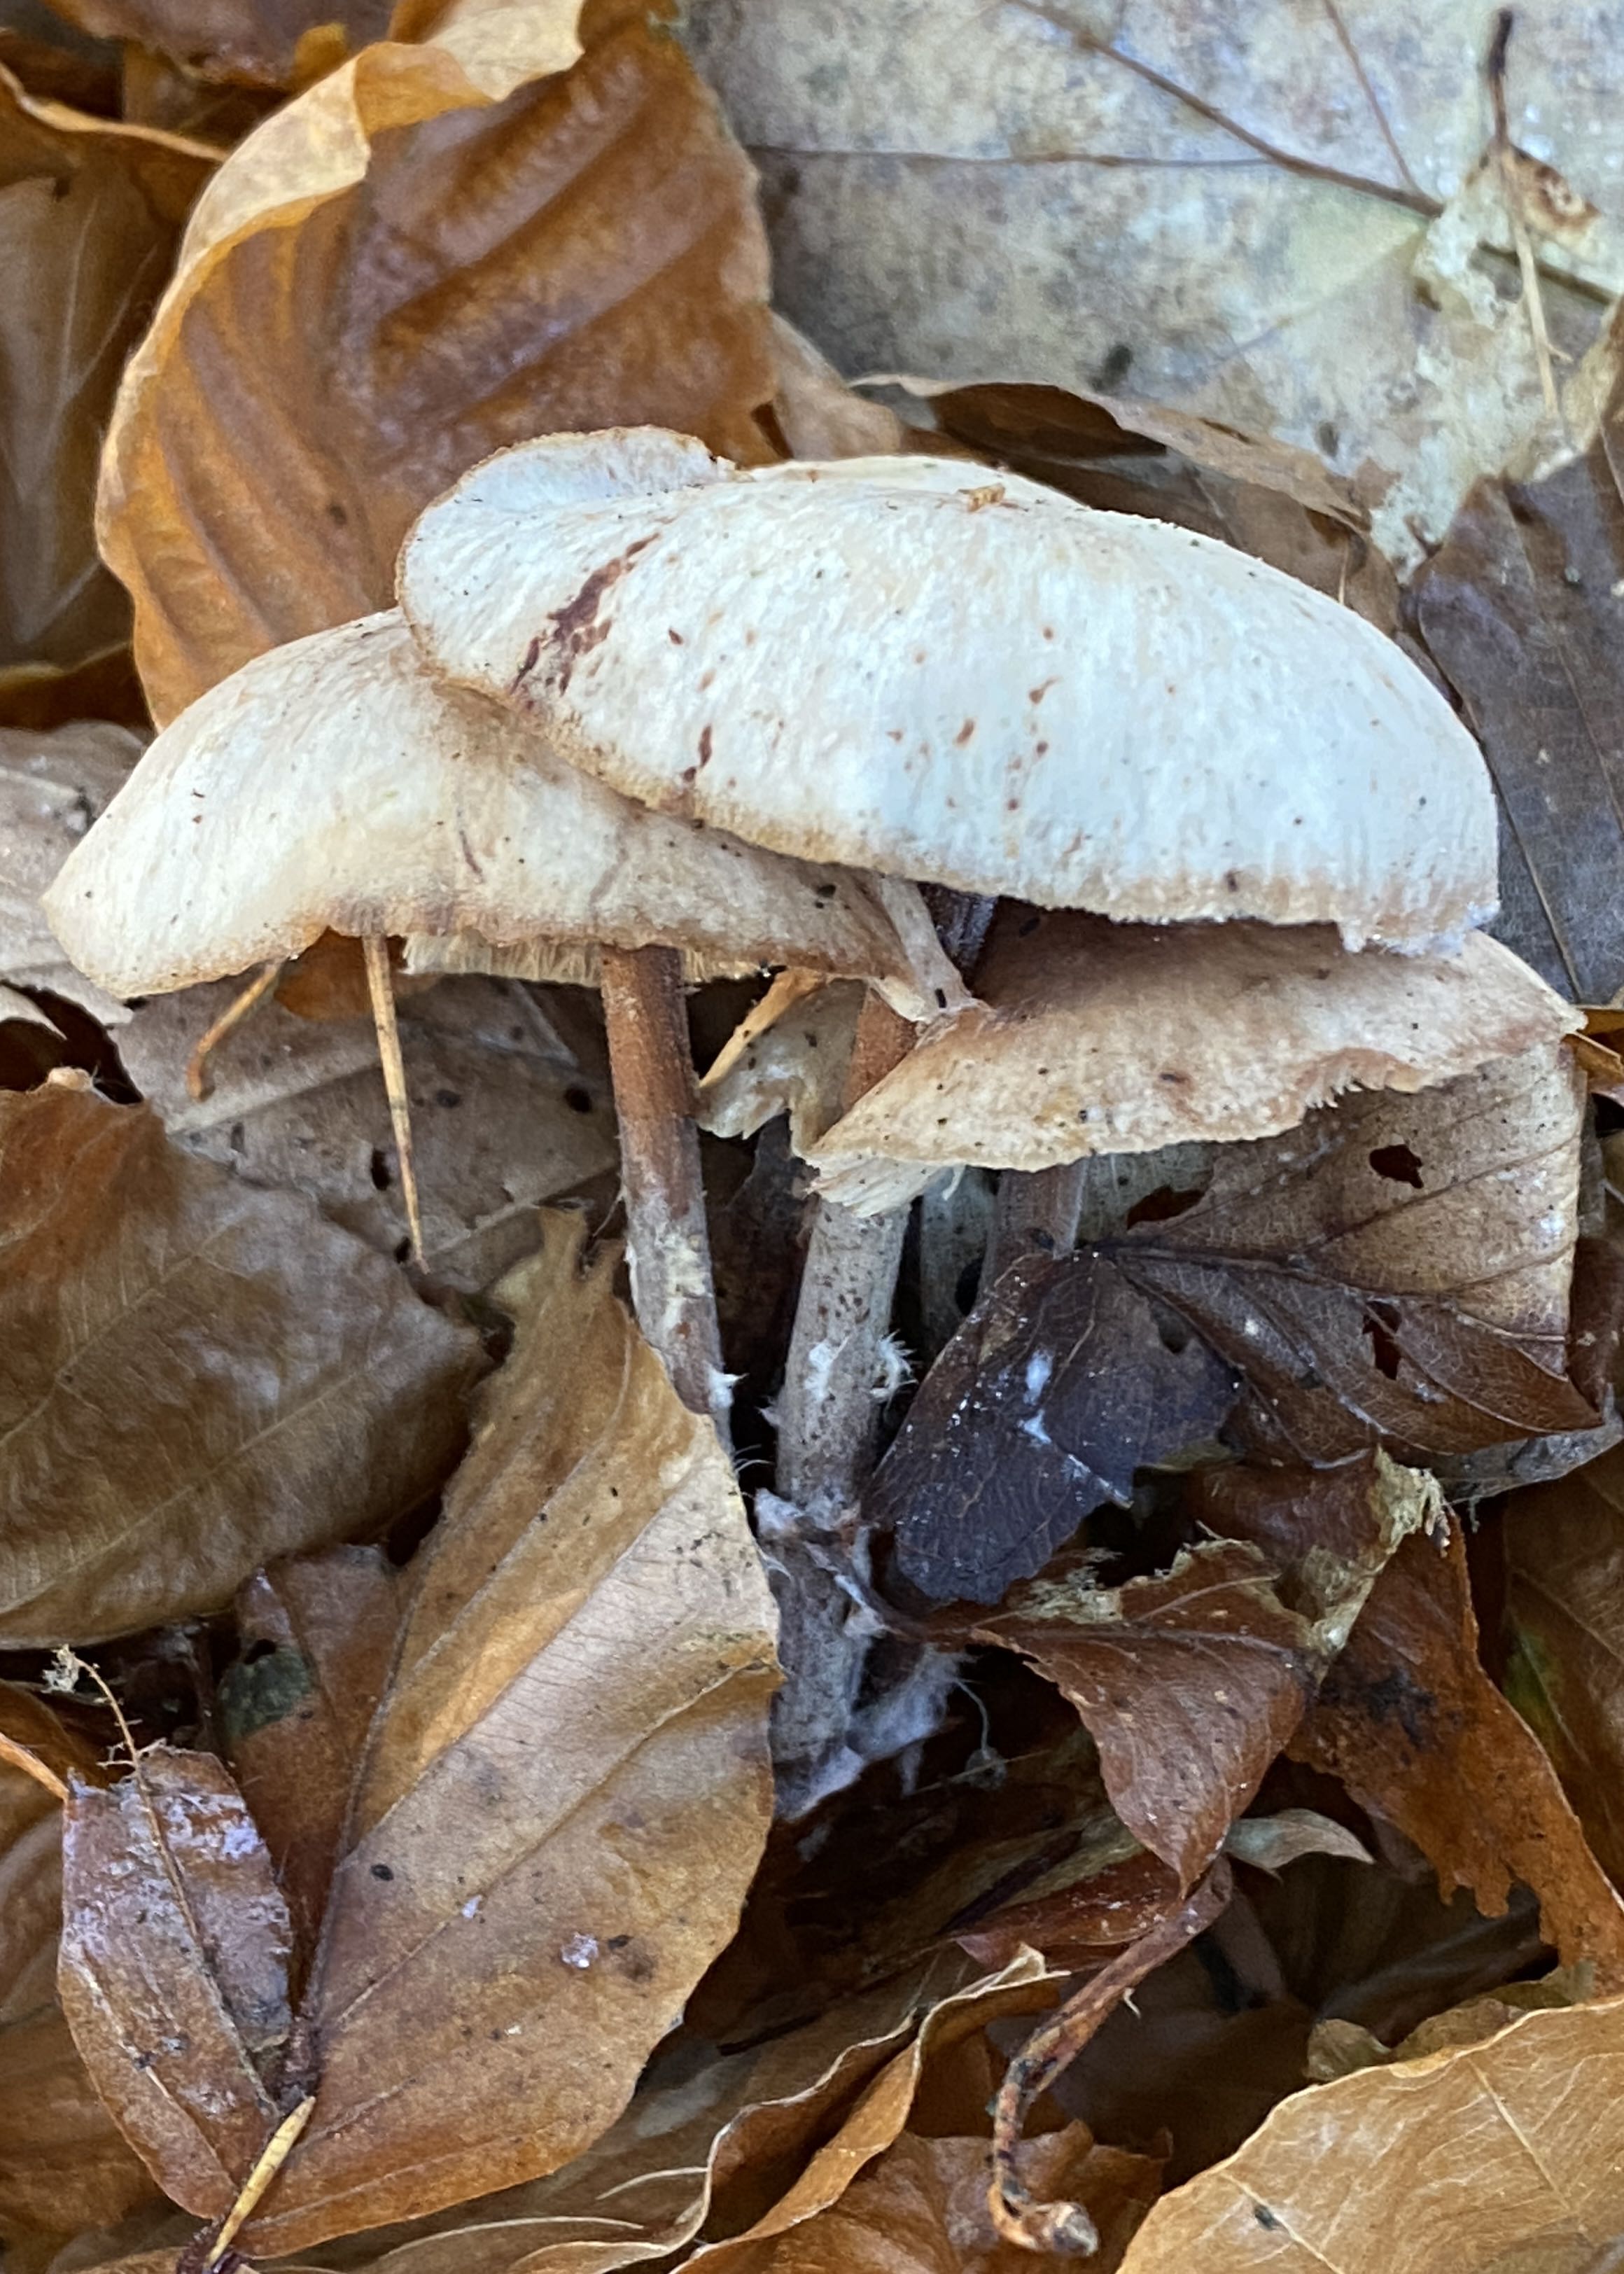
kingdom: Fungi
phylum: Basidiomycota
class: Agaricomycetes
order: Agaricales
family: Omphalotaceae
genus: Collybiopsis
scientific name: Collybiopsis confluens
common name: knippe-fladhat
